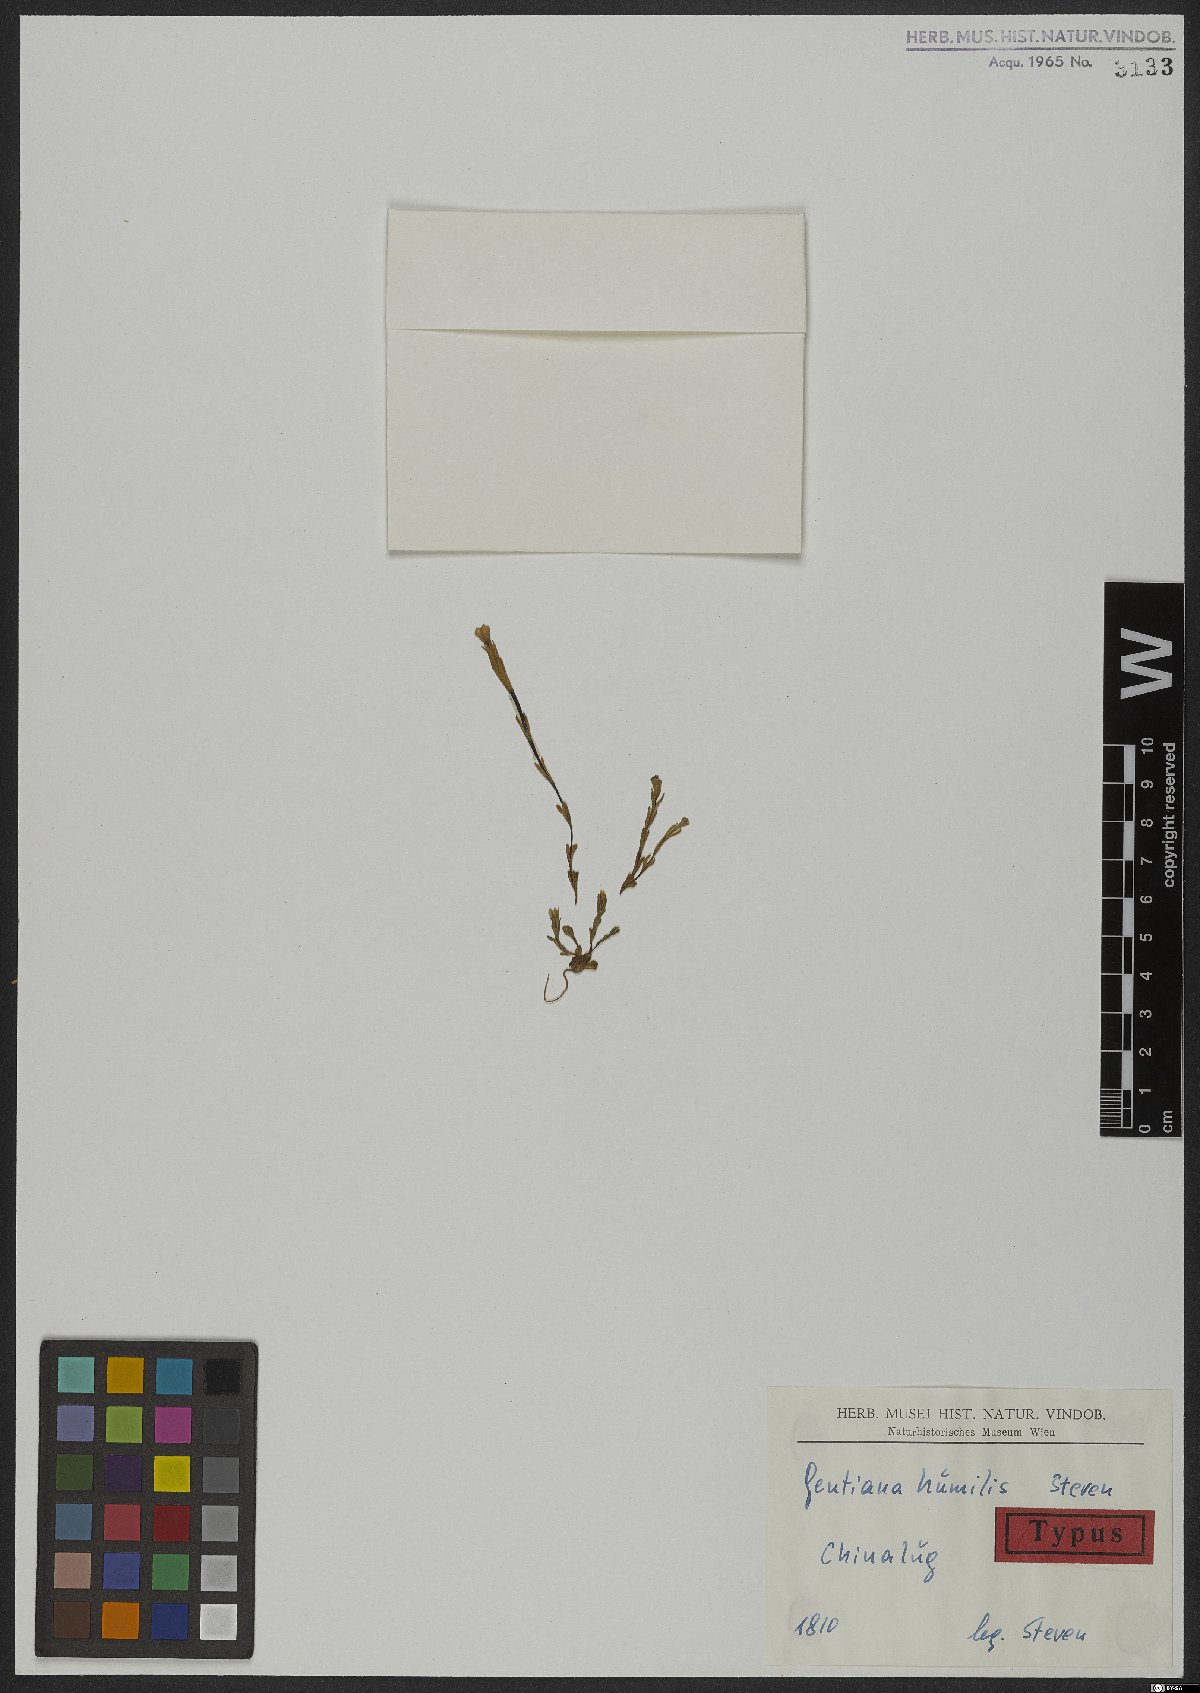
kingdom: Plantae
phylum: Tracheophyta
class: Magnoliopsida
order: Gentianales
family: Gentianaceae
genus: Gentiana
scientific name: Gentiana aquatica
